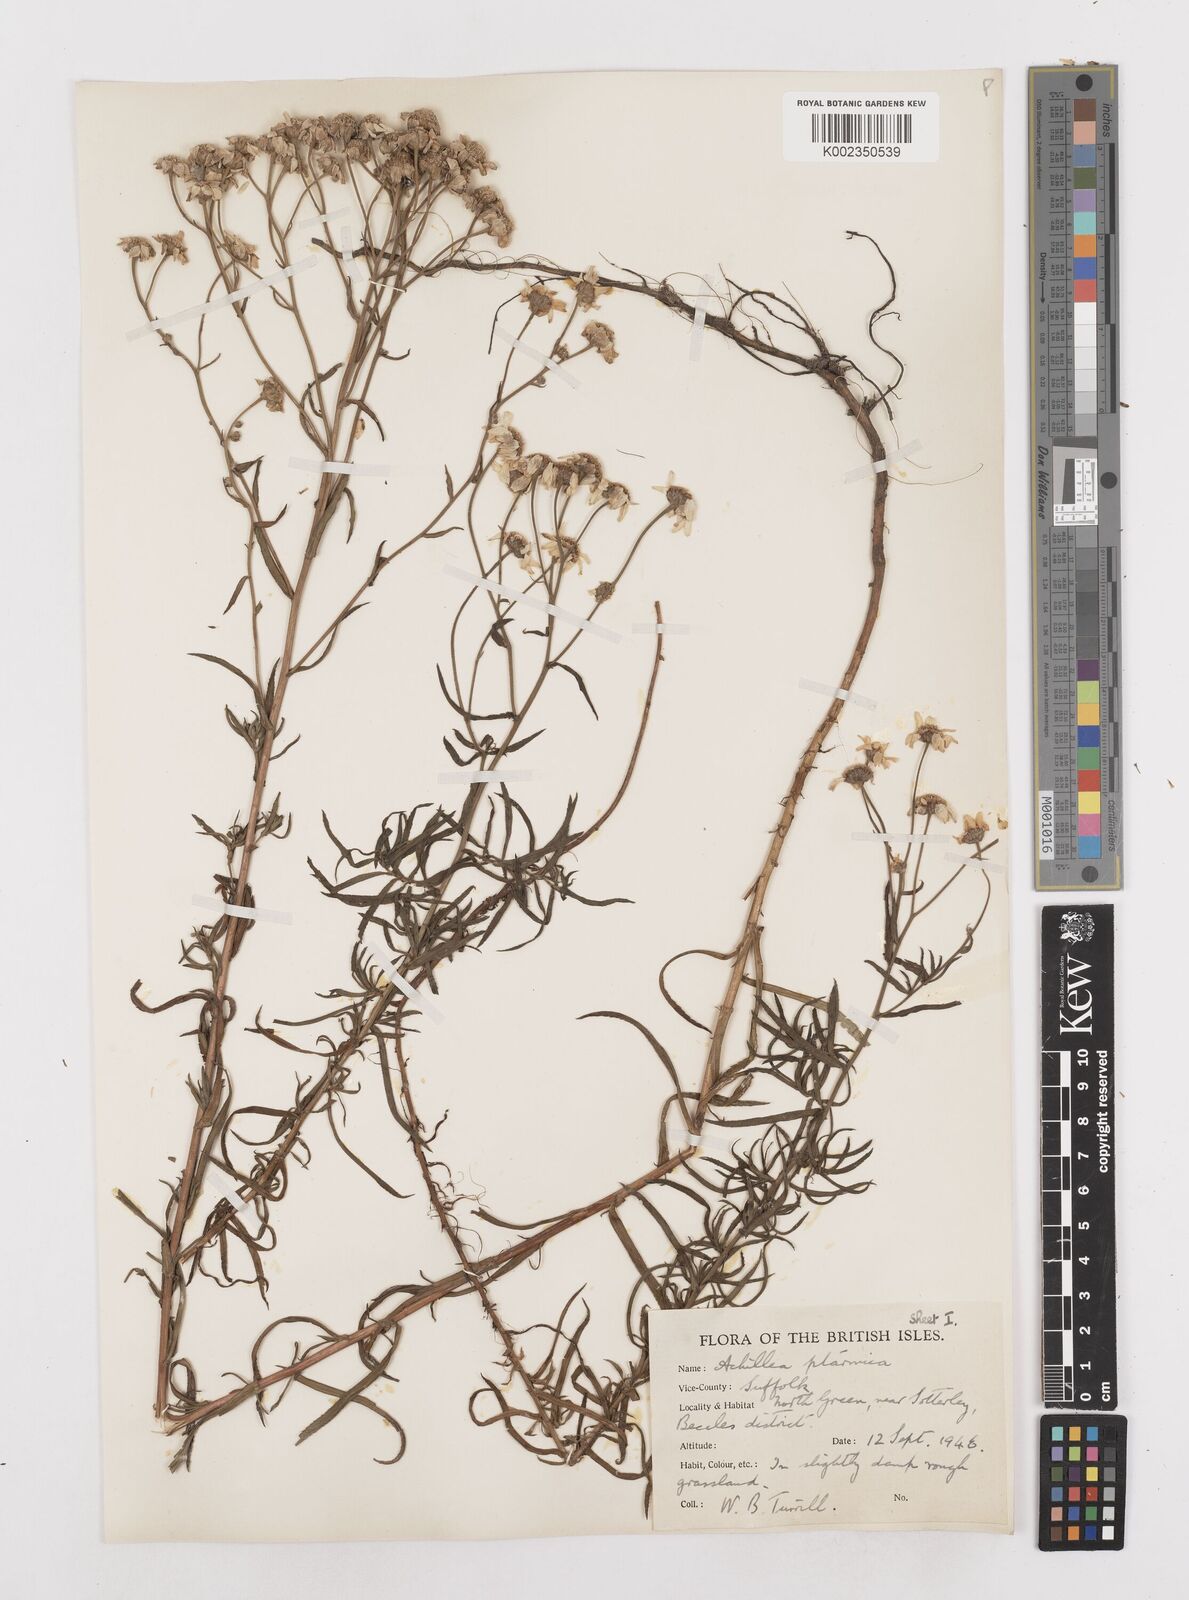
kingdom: Plantae
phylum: Tracheophyta
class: Magnoliopsida
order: Asterales
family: Asteraceae
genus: Achillea
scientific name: Achillea ptarmica
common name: Sneezeweed
